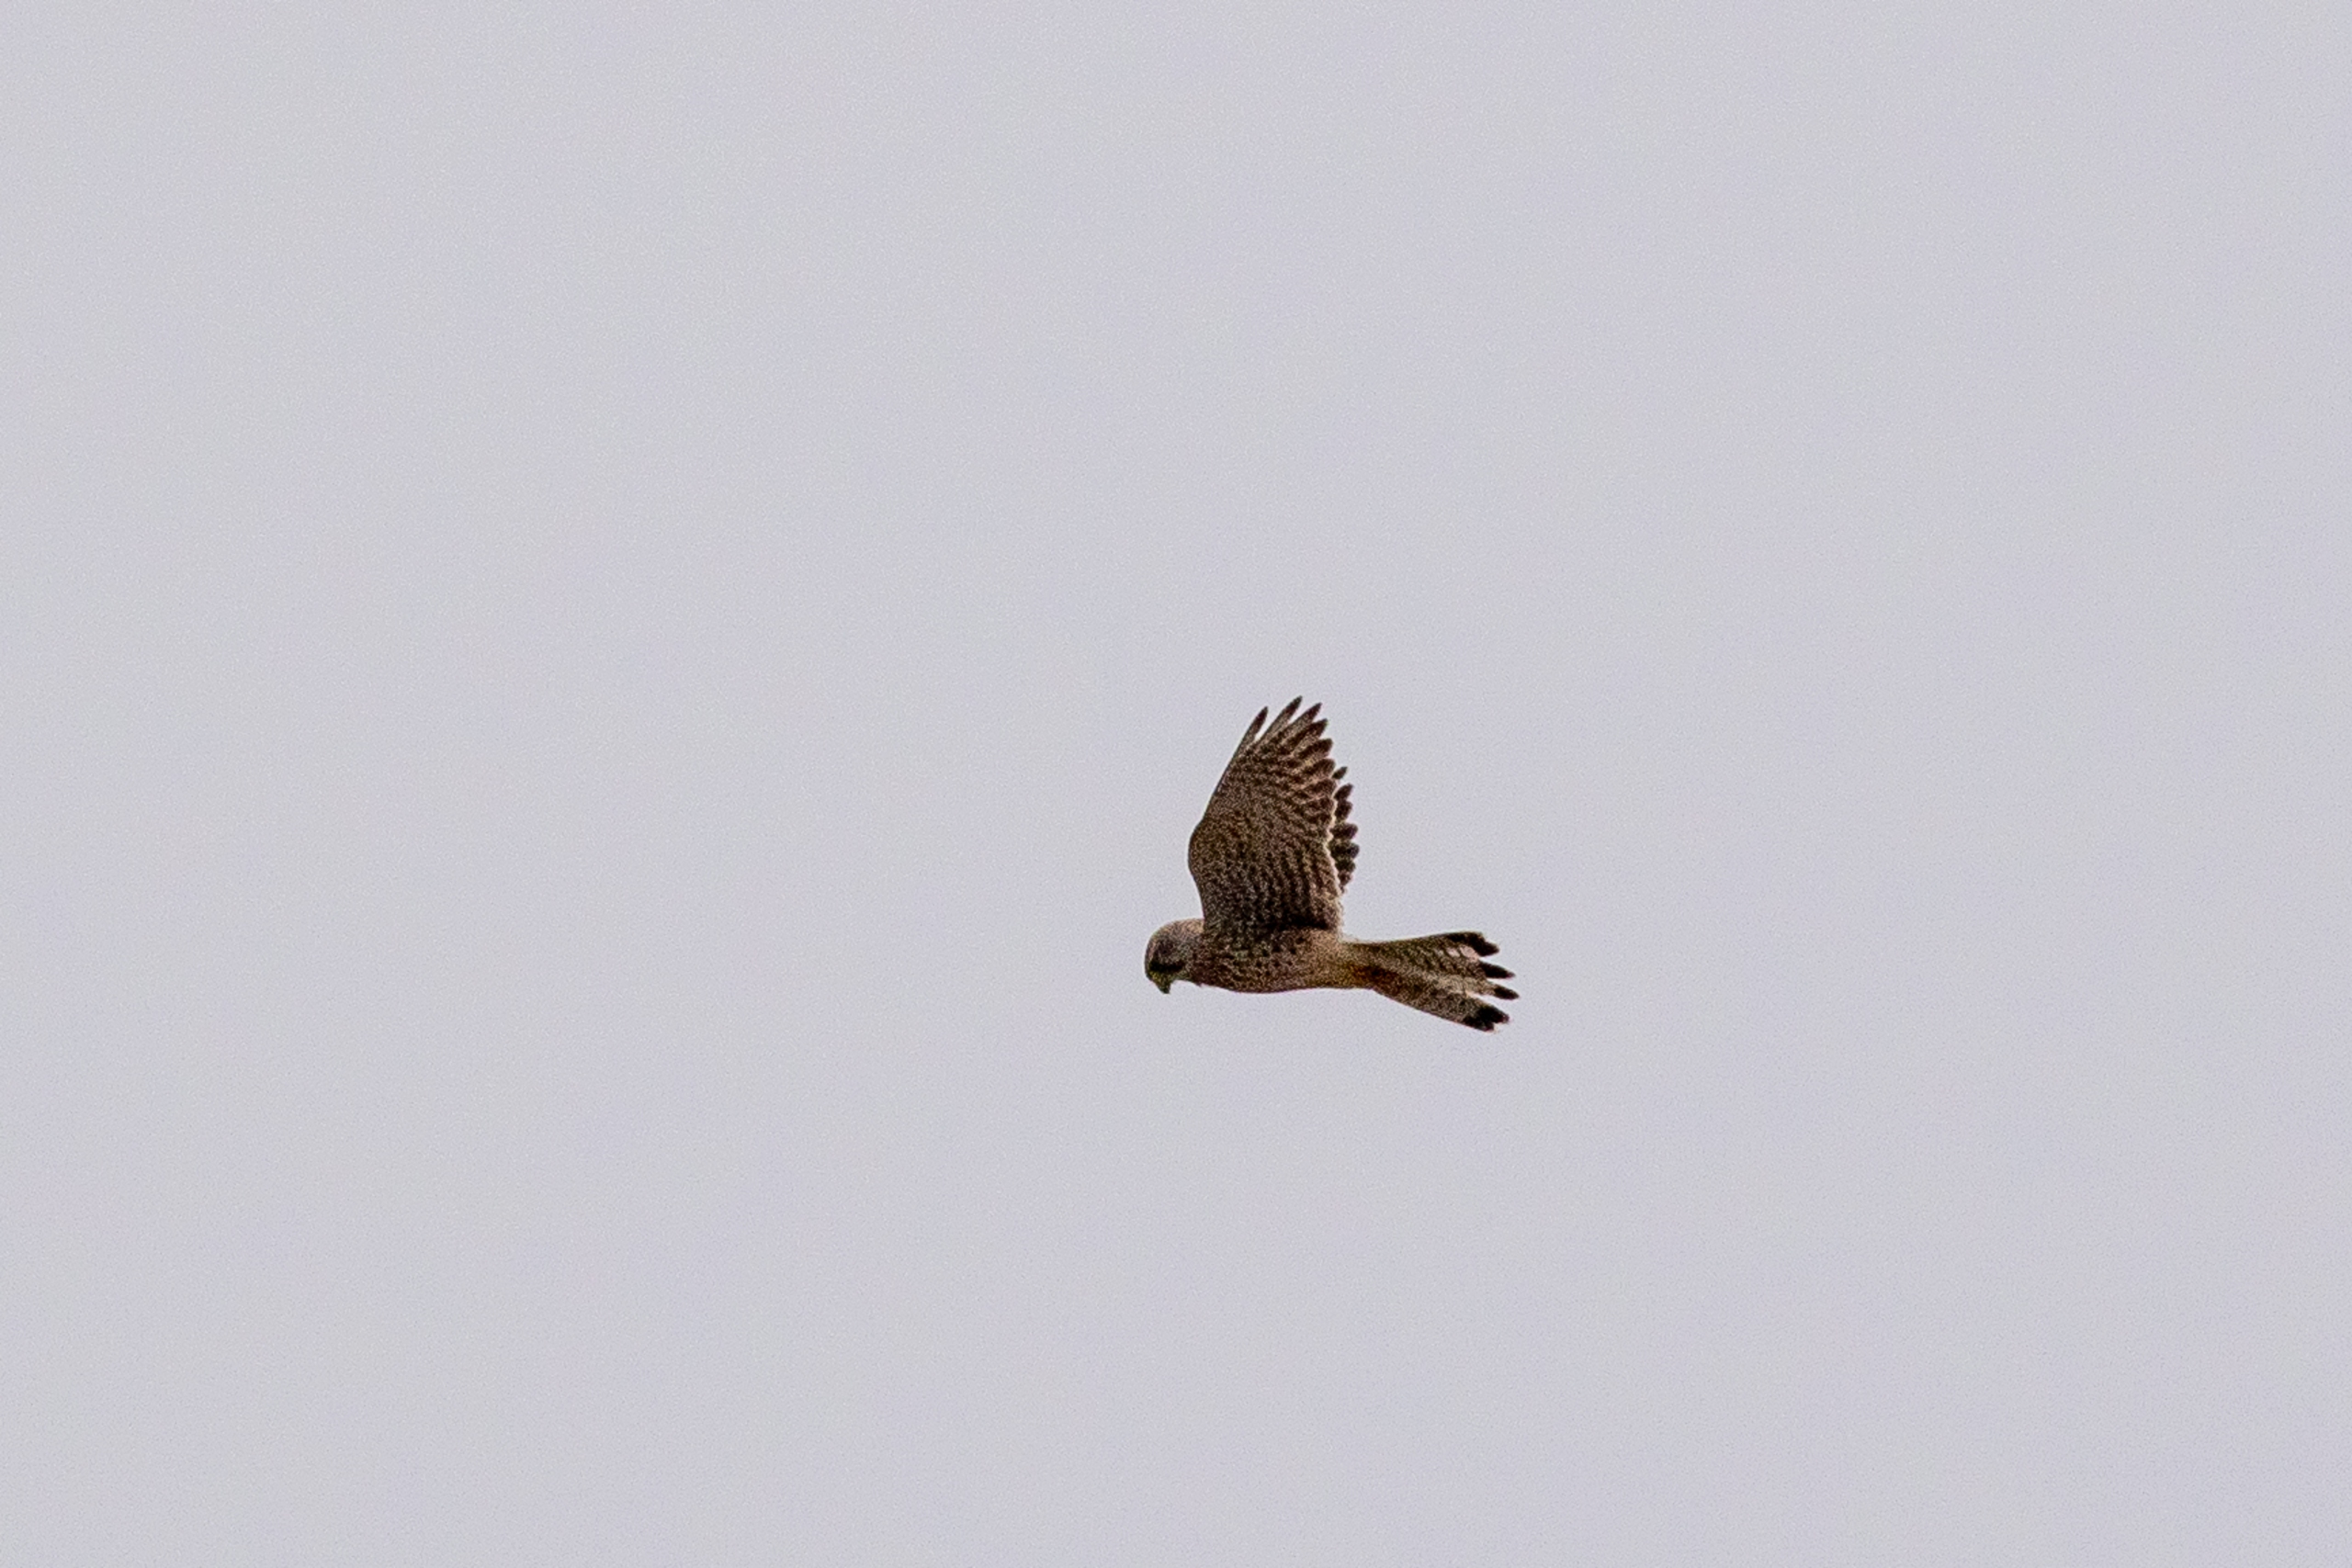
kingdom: Animalia
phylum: Chordata
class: Aves
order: Falconiformes
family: Falconidae
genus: Falco
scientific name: Falco tinnunculus
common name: Tårnfalk
